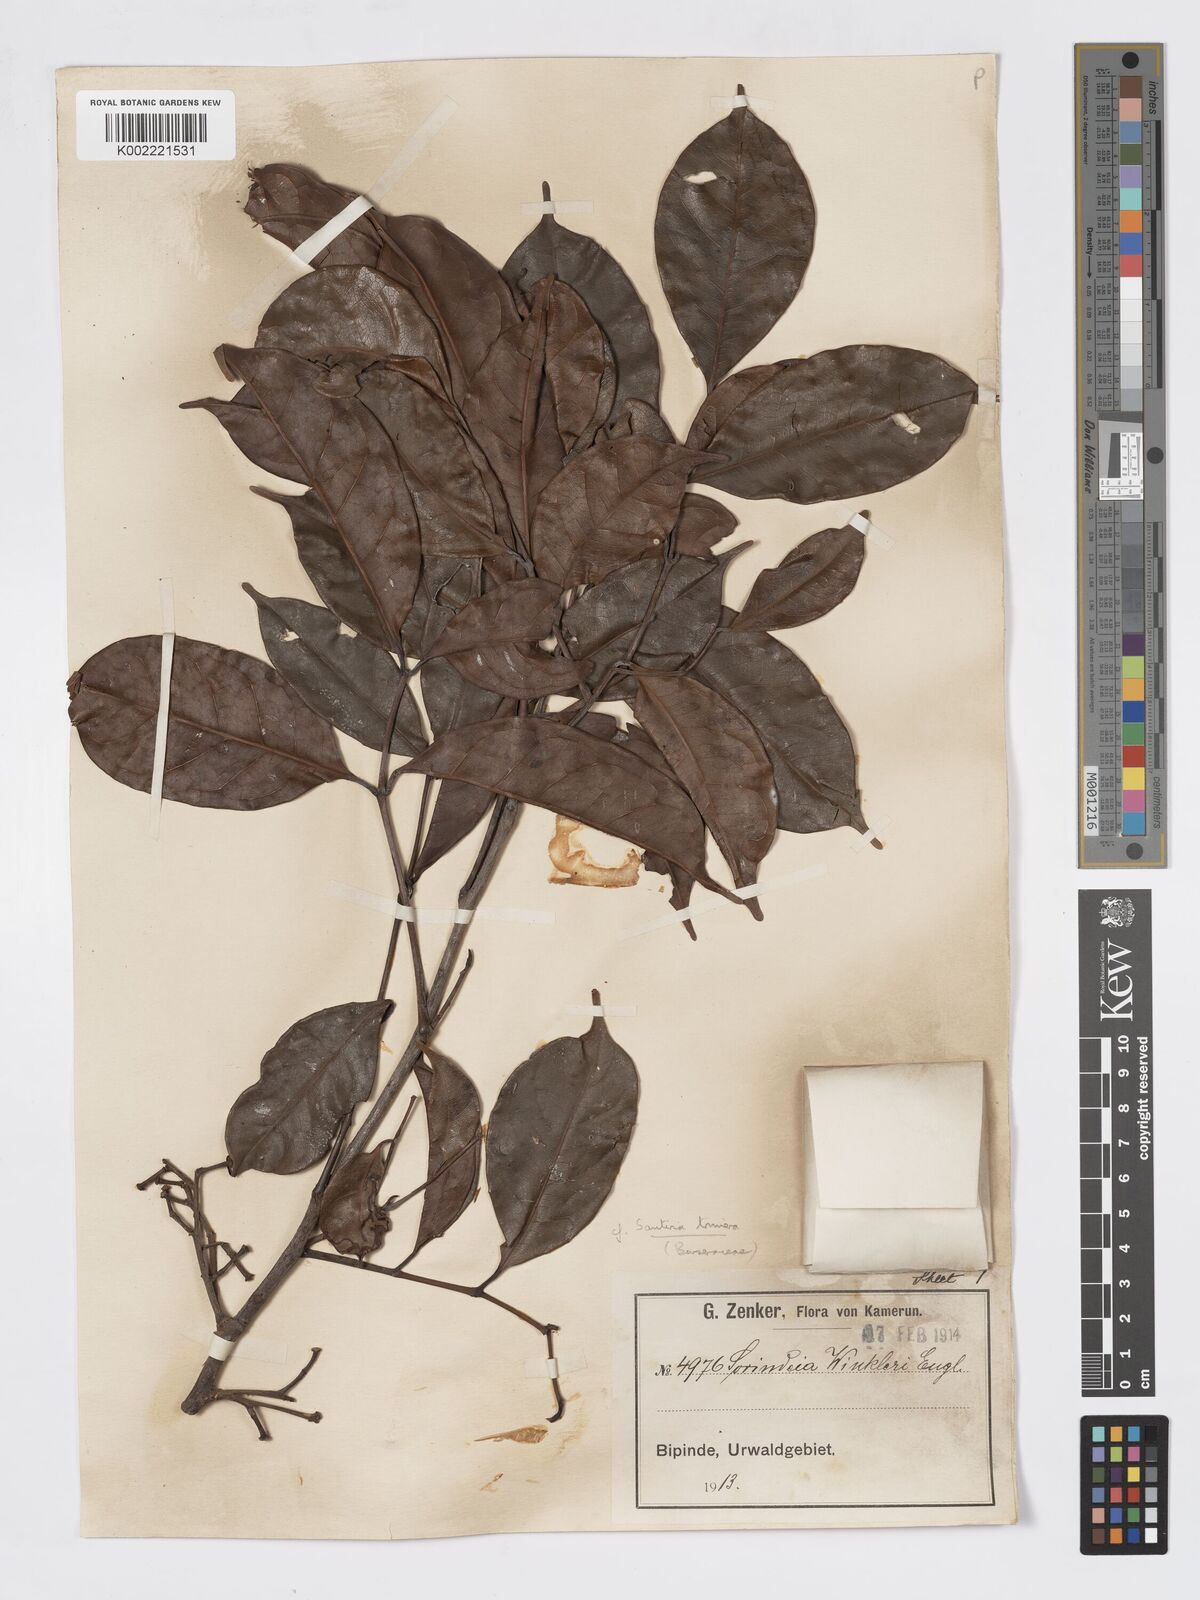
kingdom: Plantae
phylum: Tracheophyta
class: Magnoliopsida
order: Sapindales
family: Burseraceae
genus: Pachylobus
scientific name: Pachylobus trimerus
